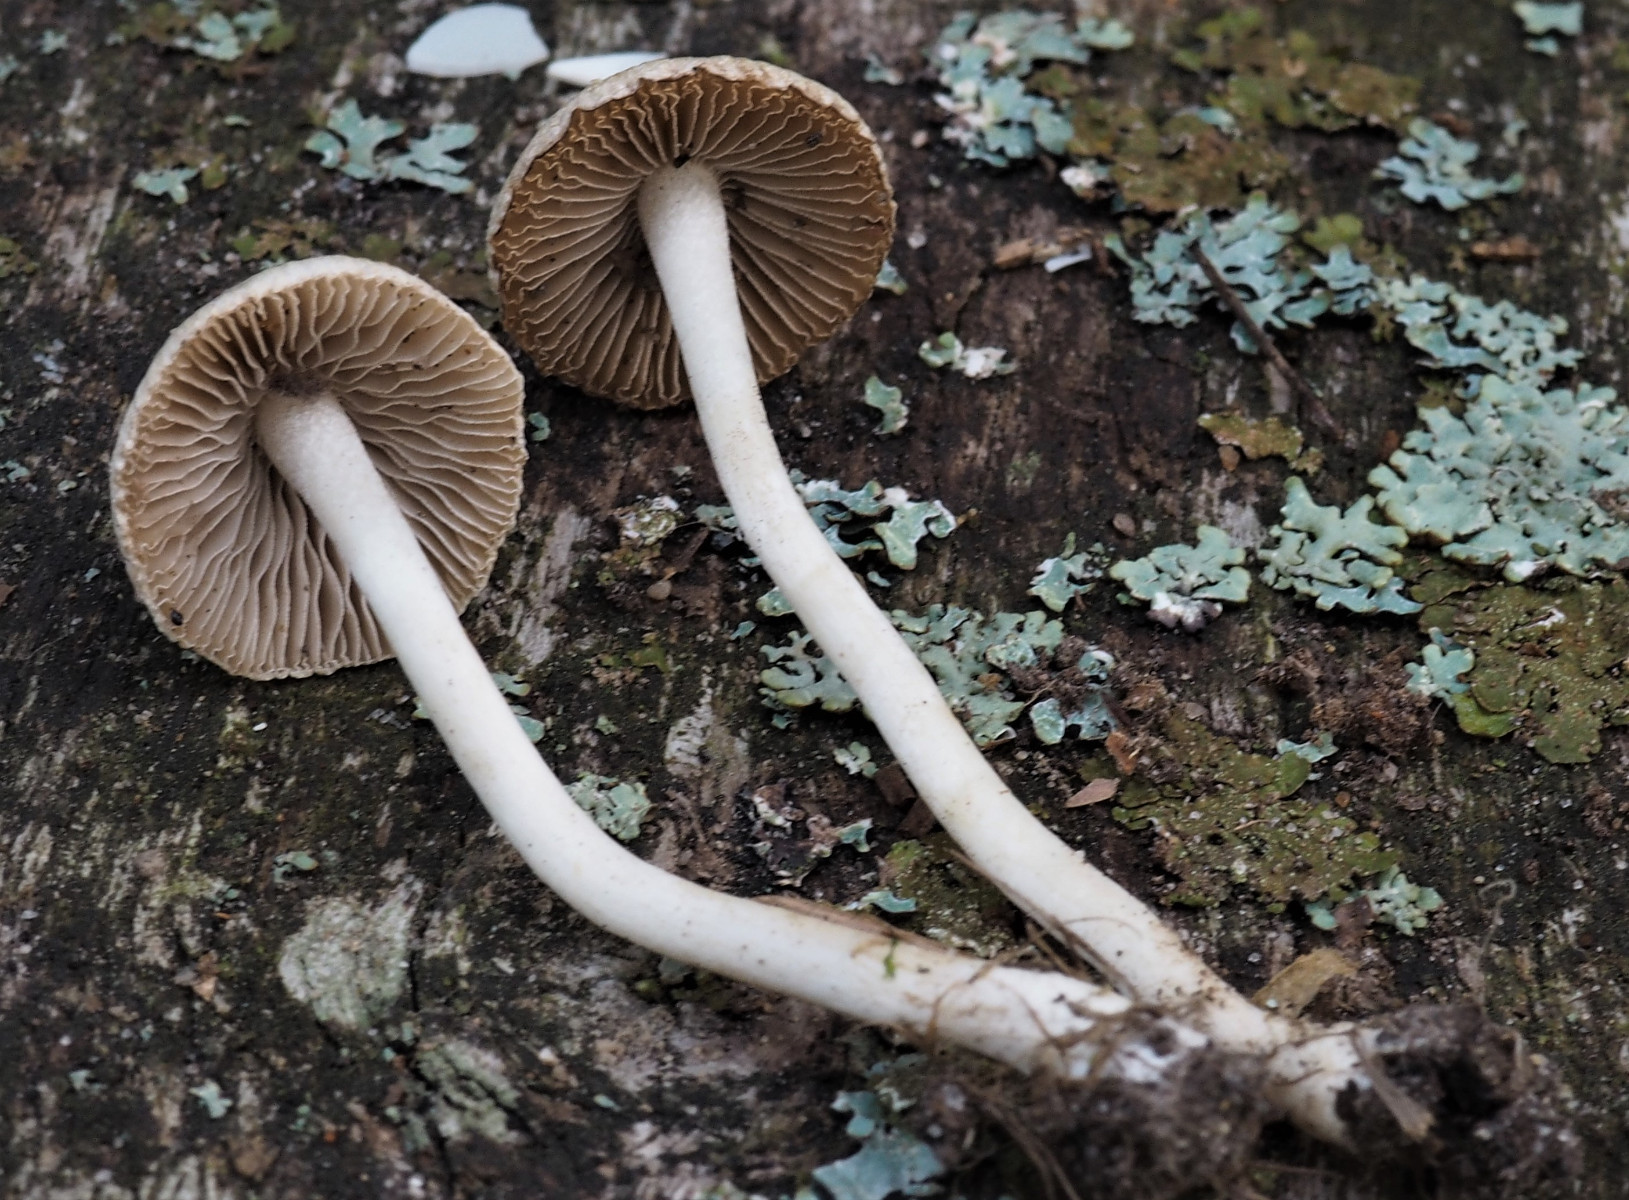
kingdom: Fungi
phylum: Basidiomycota
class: Agaricomycetes
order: Agaricales
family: Inocybaceae
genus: Inocybe
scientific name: Inocybe
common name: almindelig trævlhat
